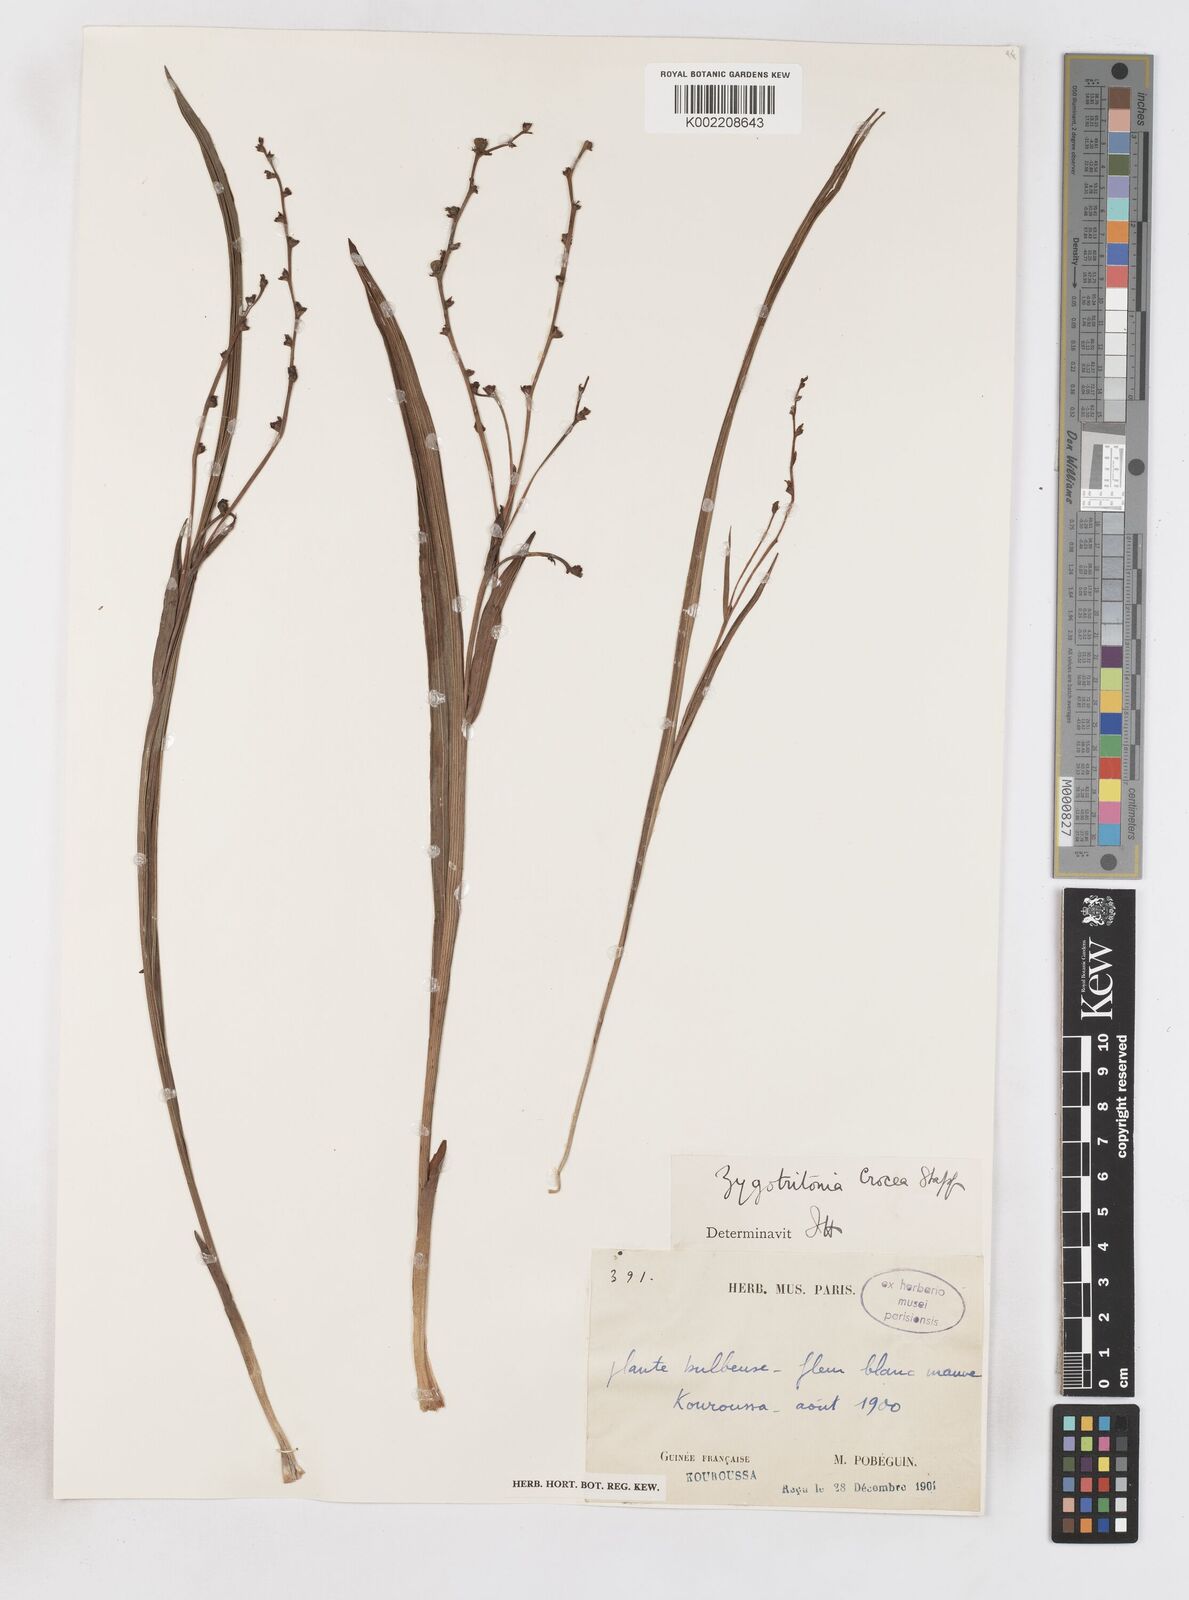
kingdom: Plantae
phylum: Tracheophyta
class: Liliopsida
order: Asparagales
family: Iridaceae
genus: Savannosiphon
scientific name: Savannosiphon
